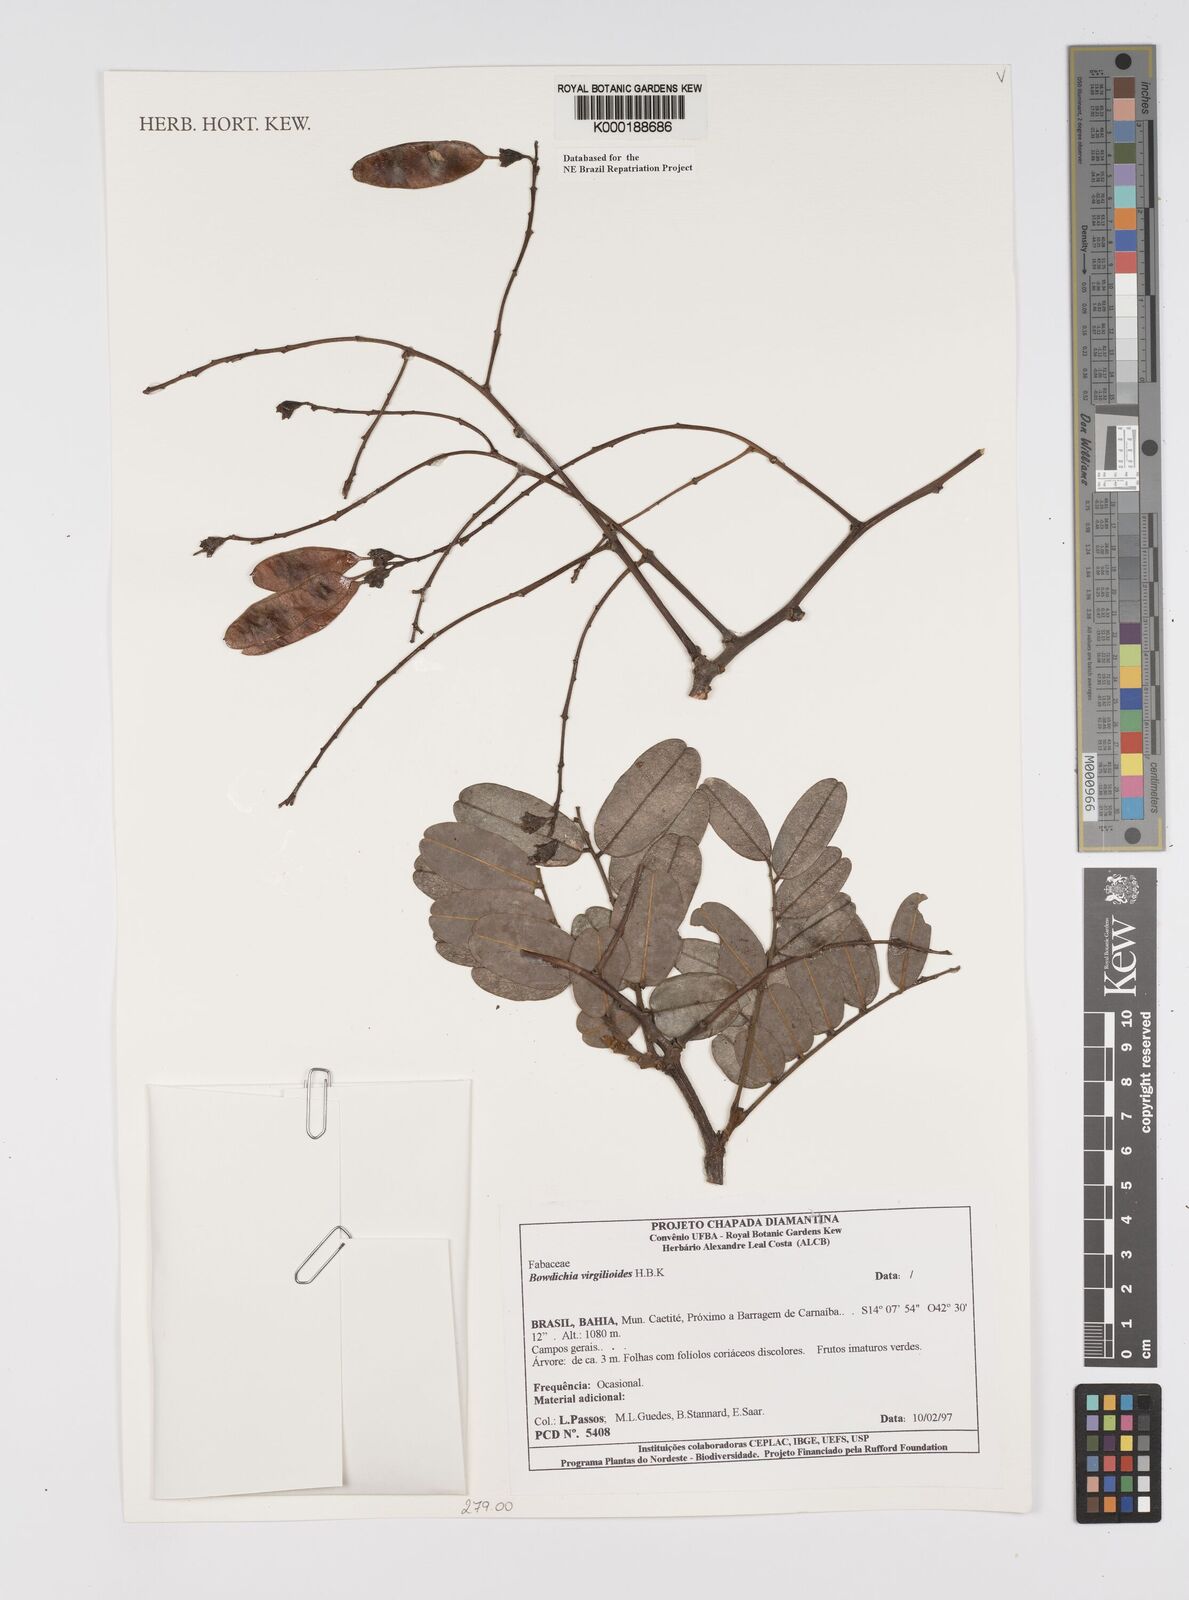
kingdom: Plantae
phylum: Tracheophyta
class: Magnoliopsida
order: Fabales
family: Fabaceae
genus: Bowdichia
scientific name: Bowdichia virgilioides
